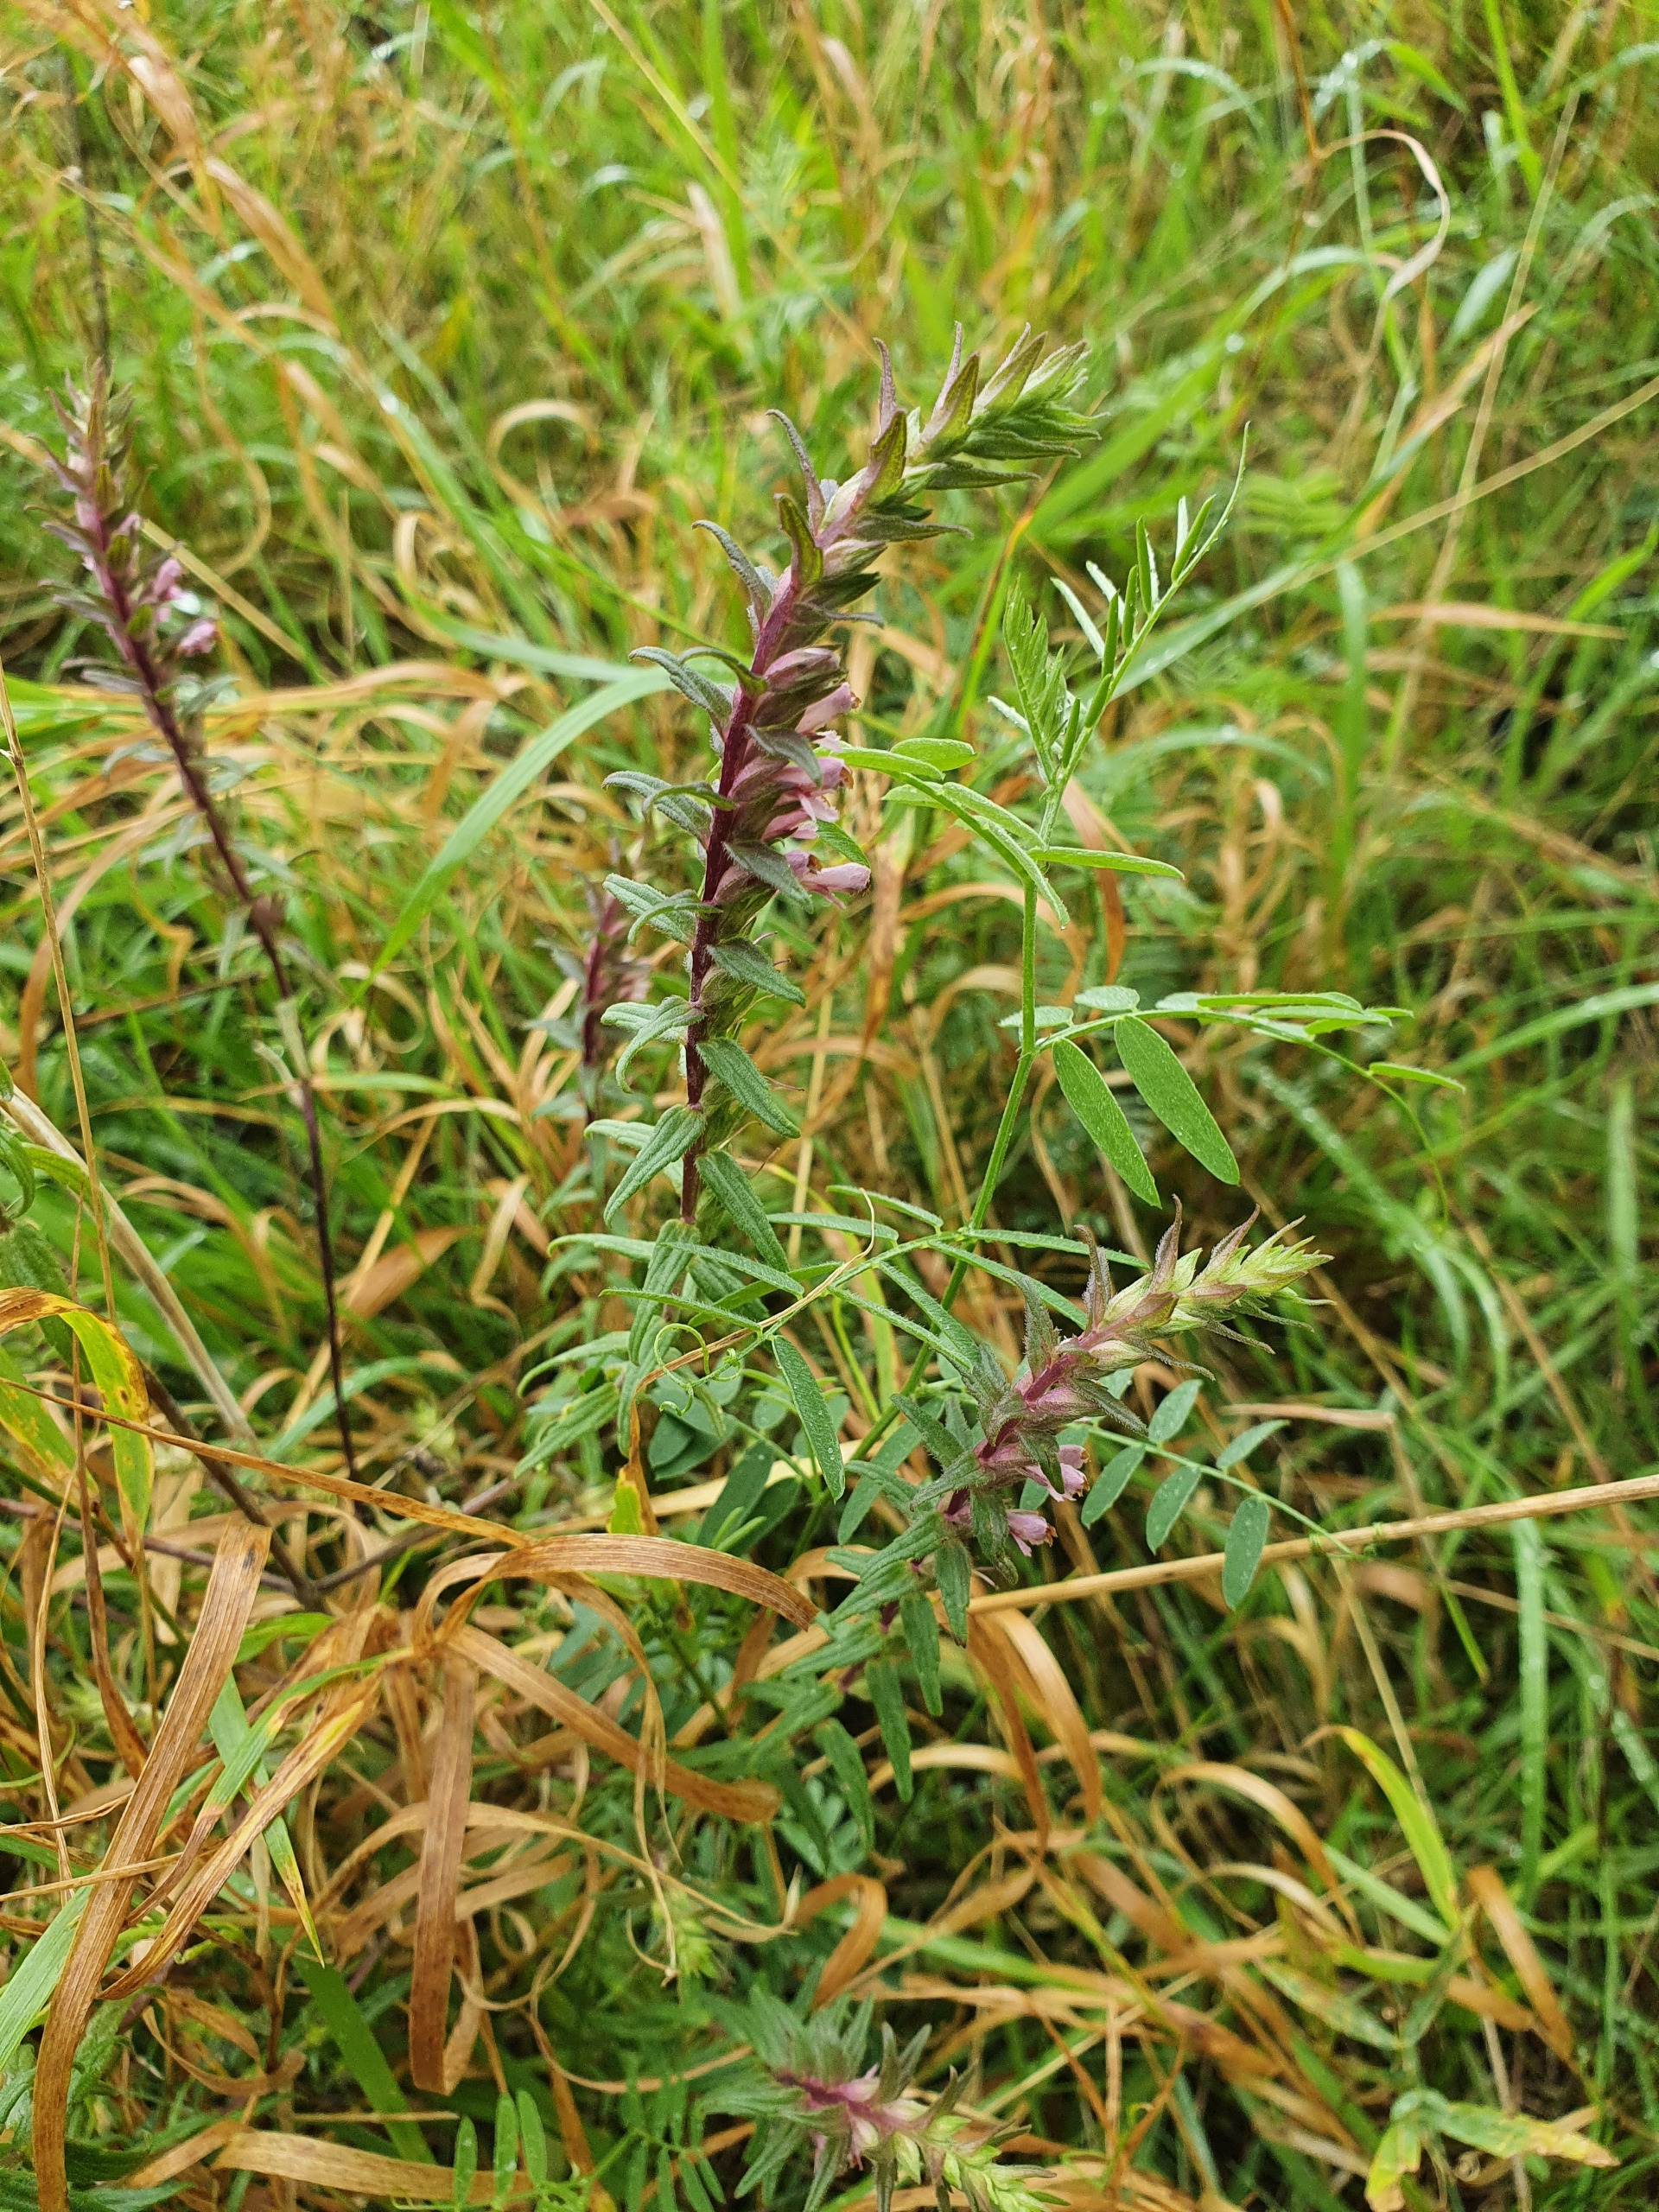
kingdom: Plantae
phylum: Tracheophyta
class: Magnoliopsida
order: Lamiales
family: Orobanchaceae
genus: Odontites
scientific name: Odontites vernus
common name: Mark-rødtop
